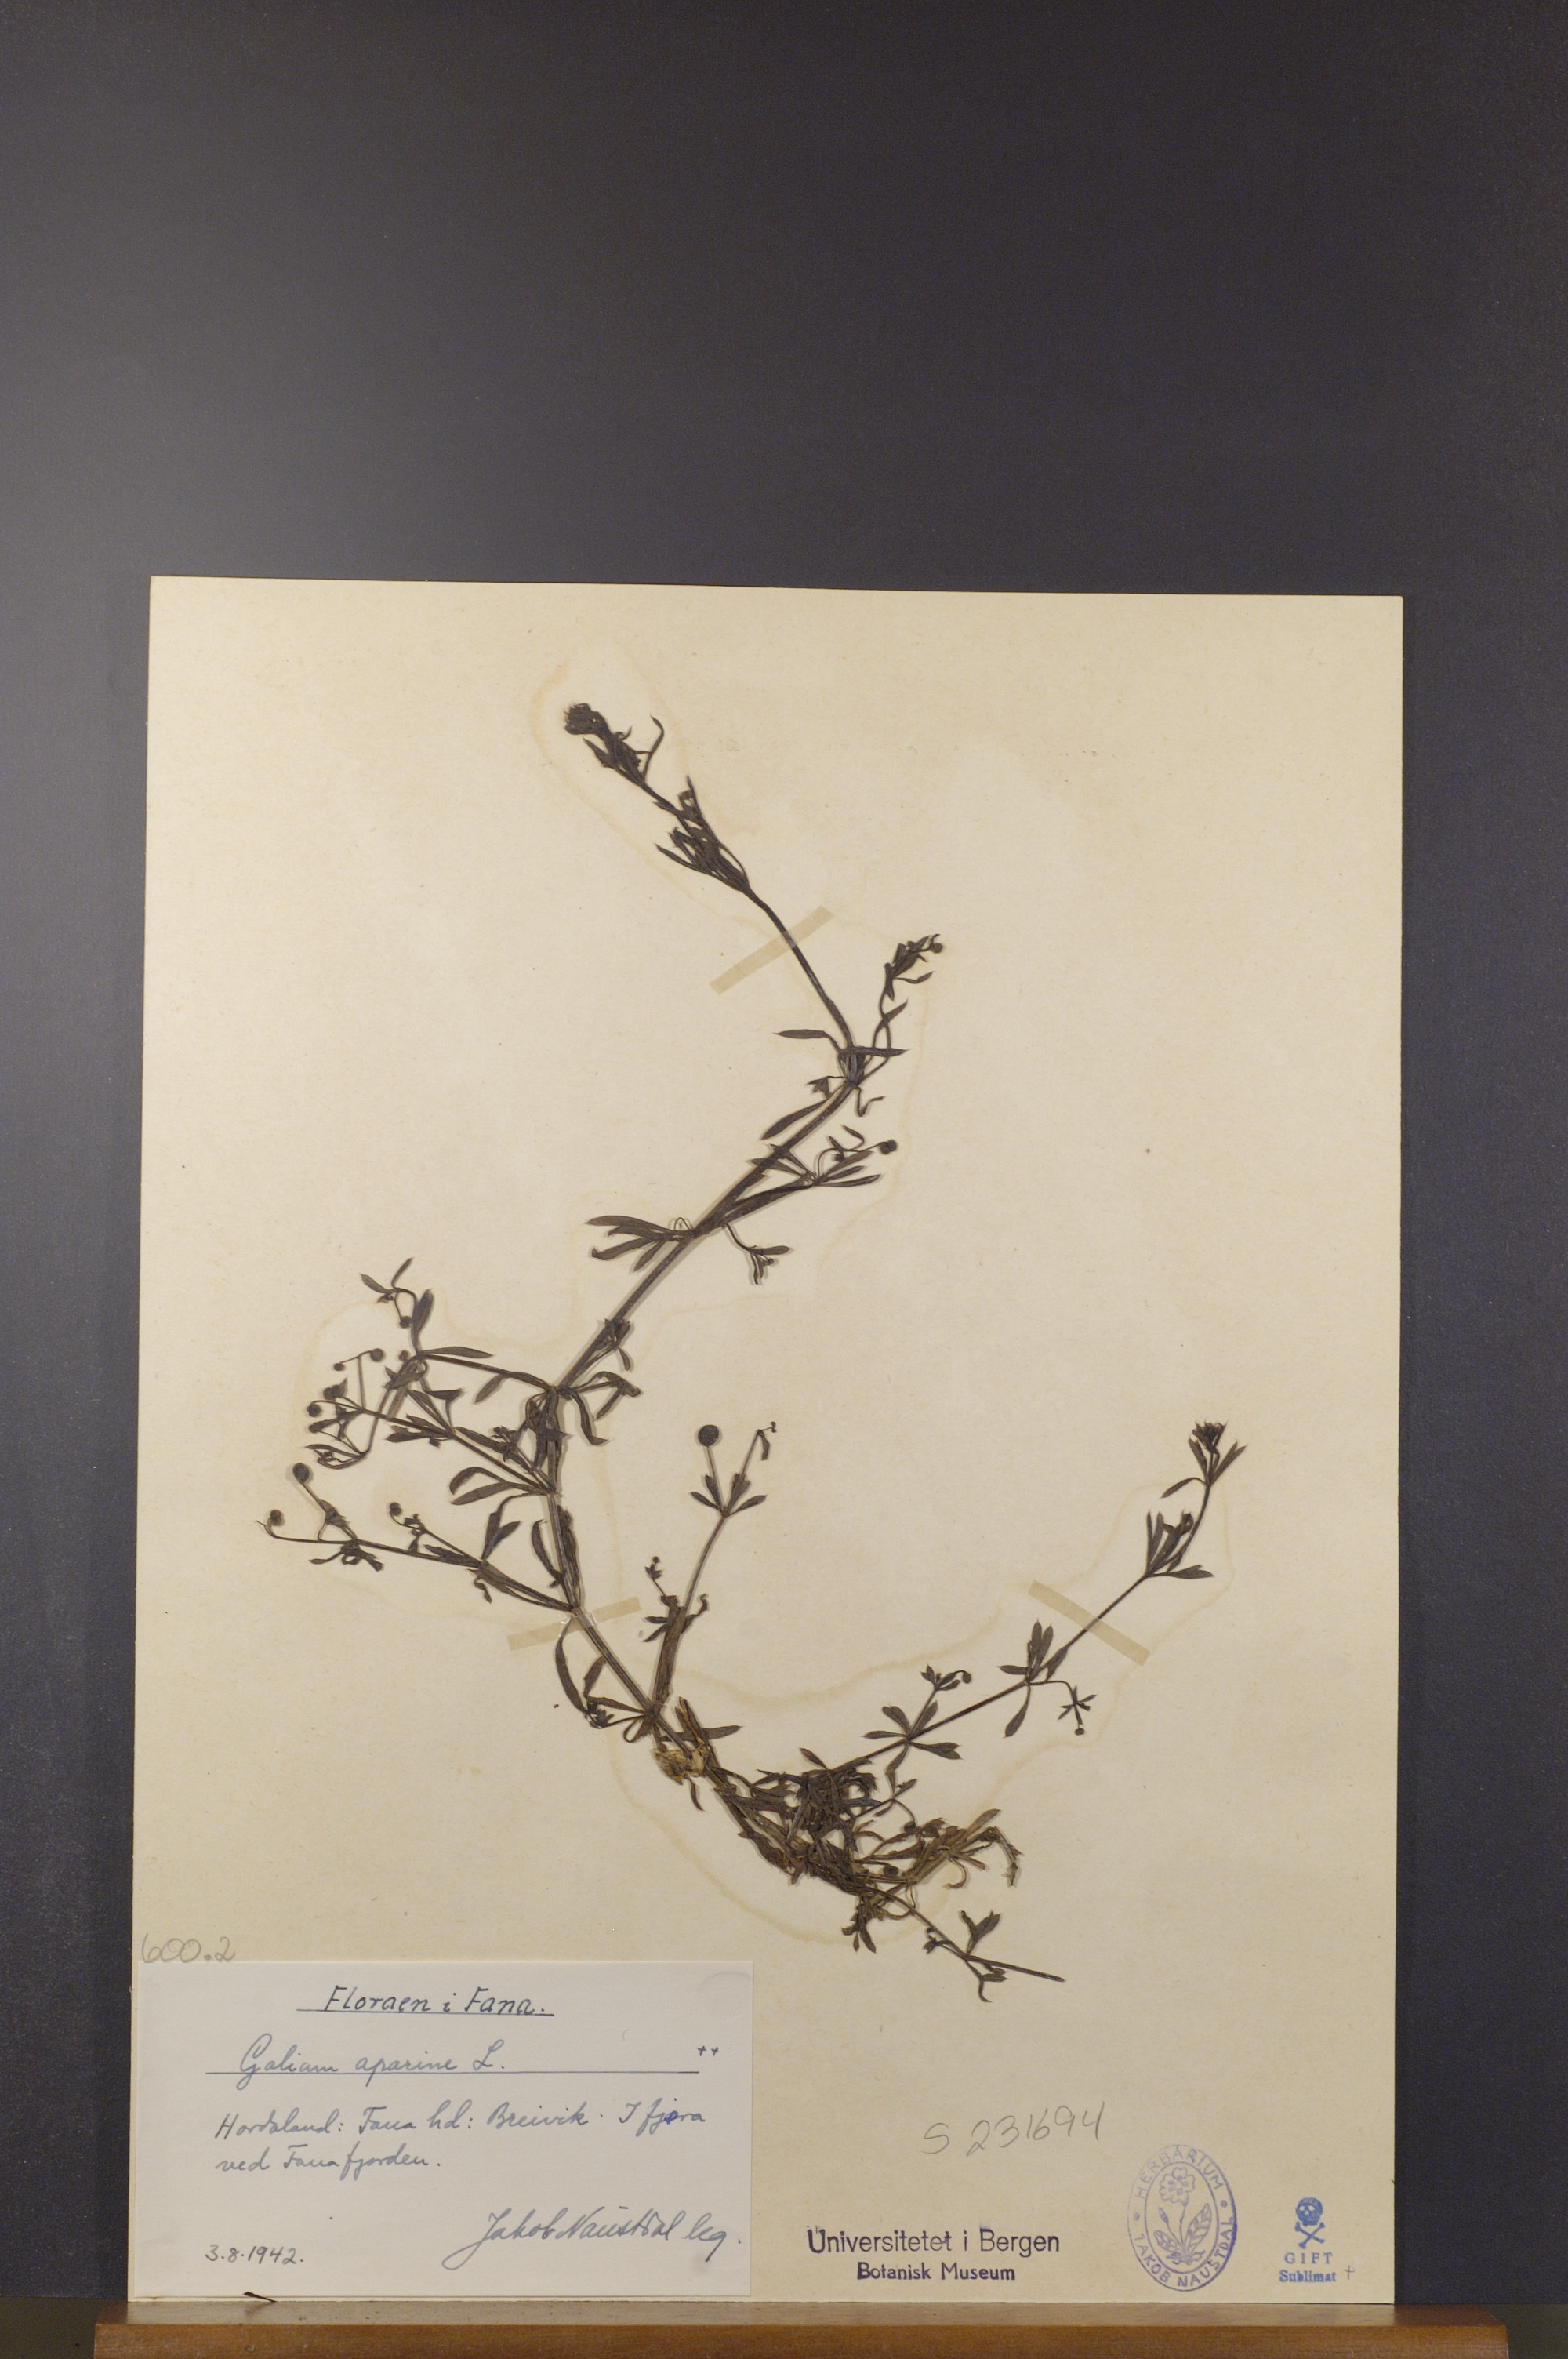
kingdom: Plantae
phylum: Tracheophyta
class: Magnoliopsida
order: Gentianales
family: Rubiaceae
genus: Galium
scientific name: Galium aparine
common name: Cleavers
